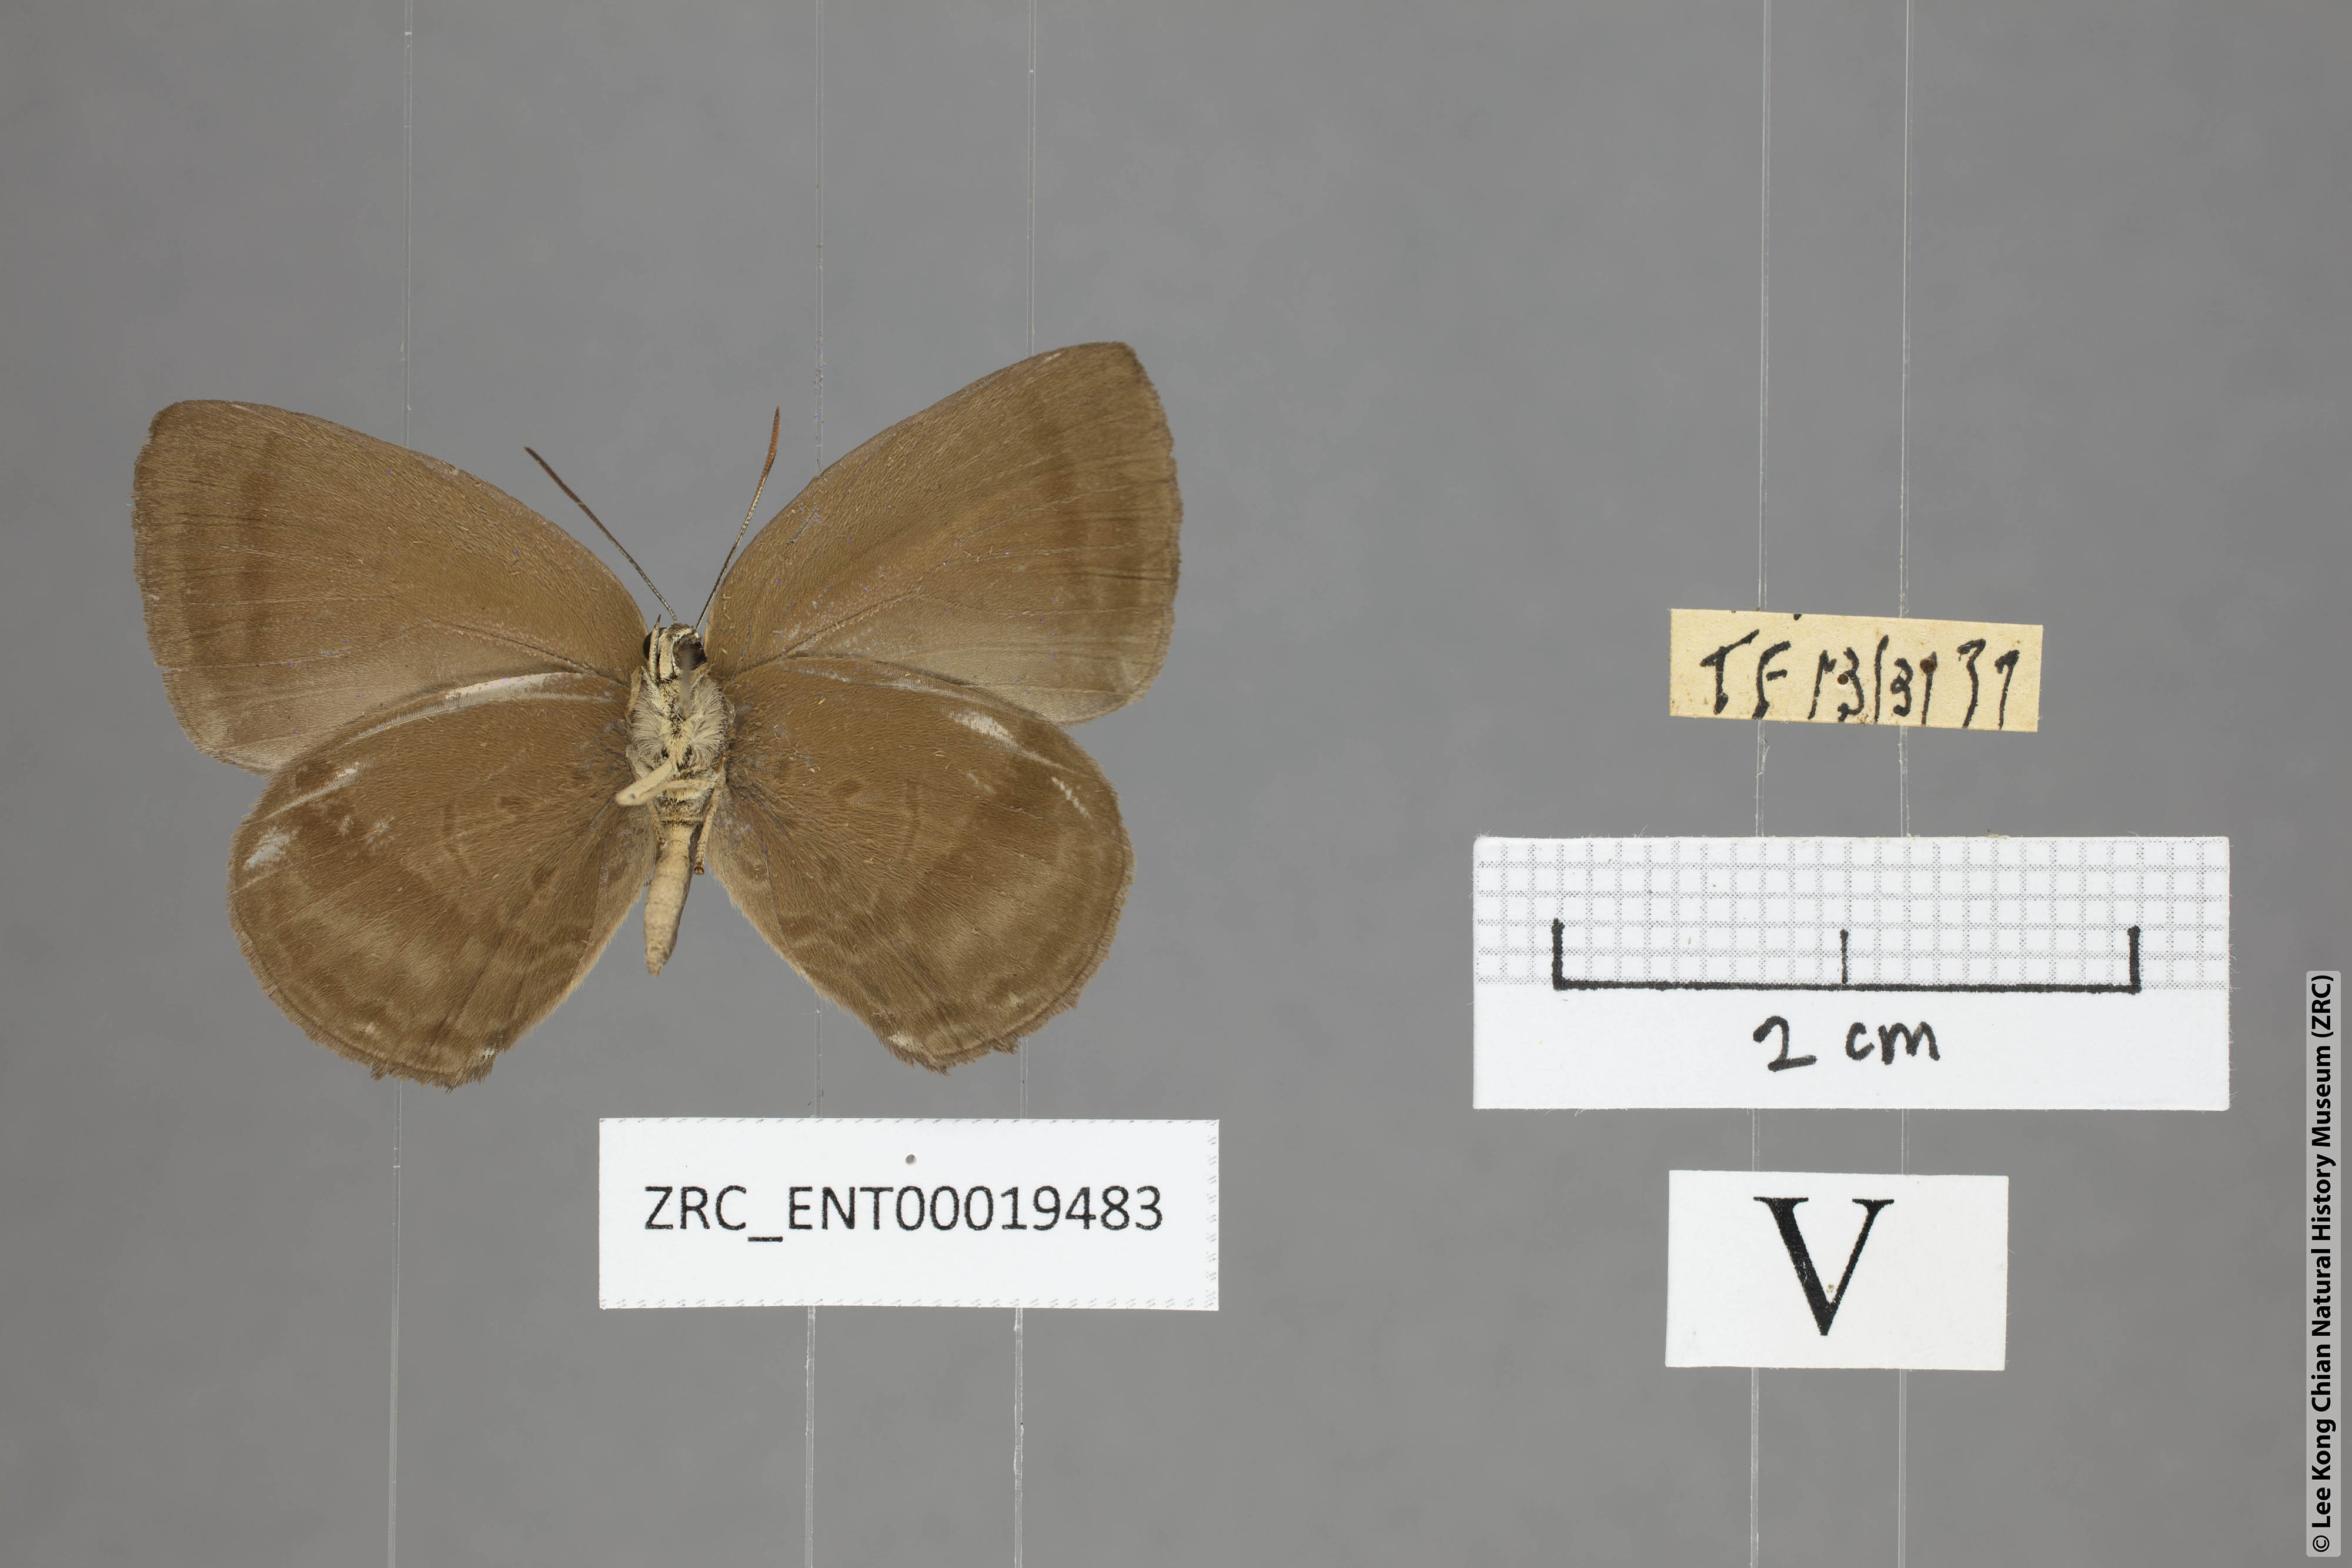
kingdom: Animalia
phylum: Arthropoda
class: Insecta
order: Lepidoptera
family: Lycaenidae
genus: Arhopala
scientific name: Arhopala fulla
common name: Spotless oakblue
